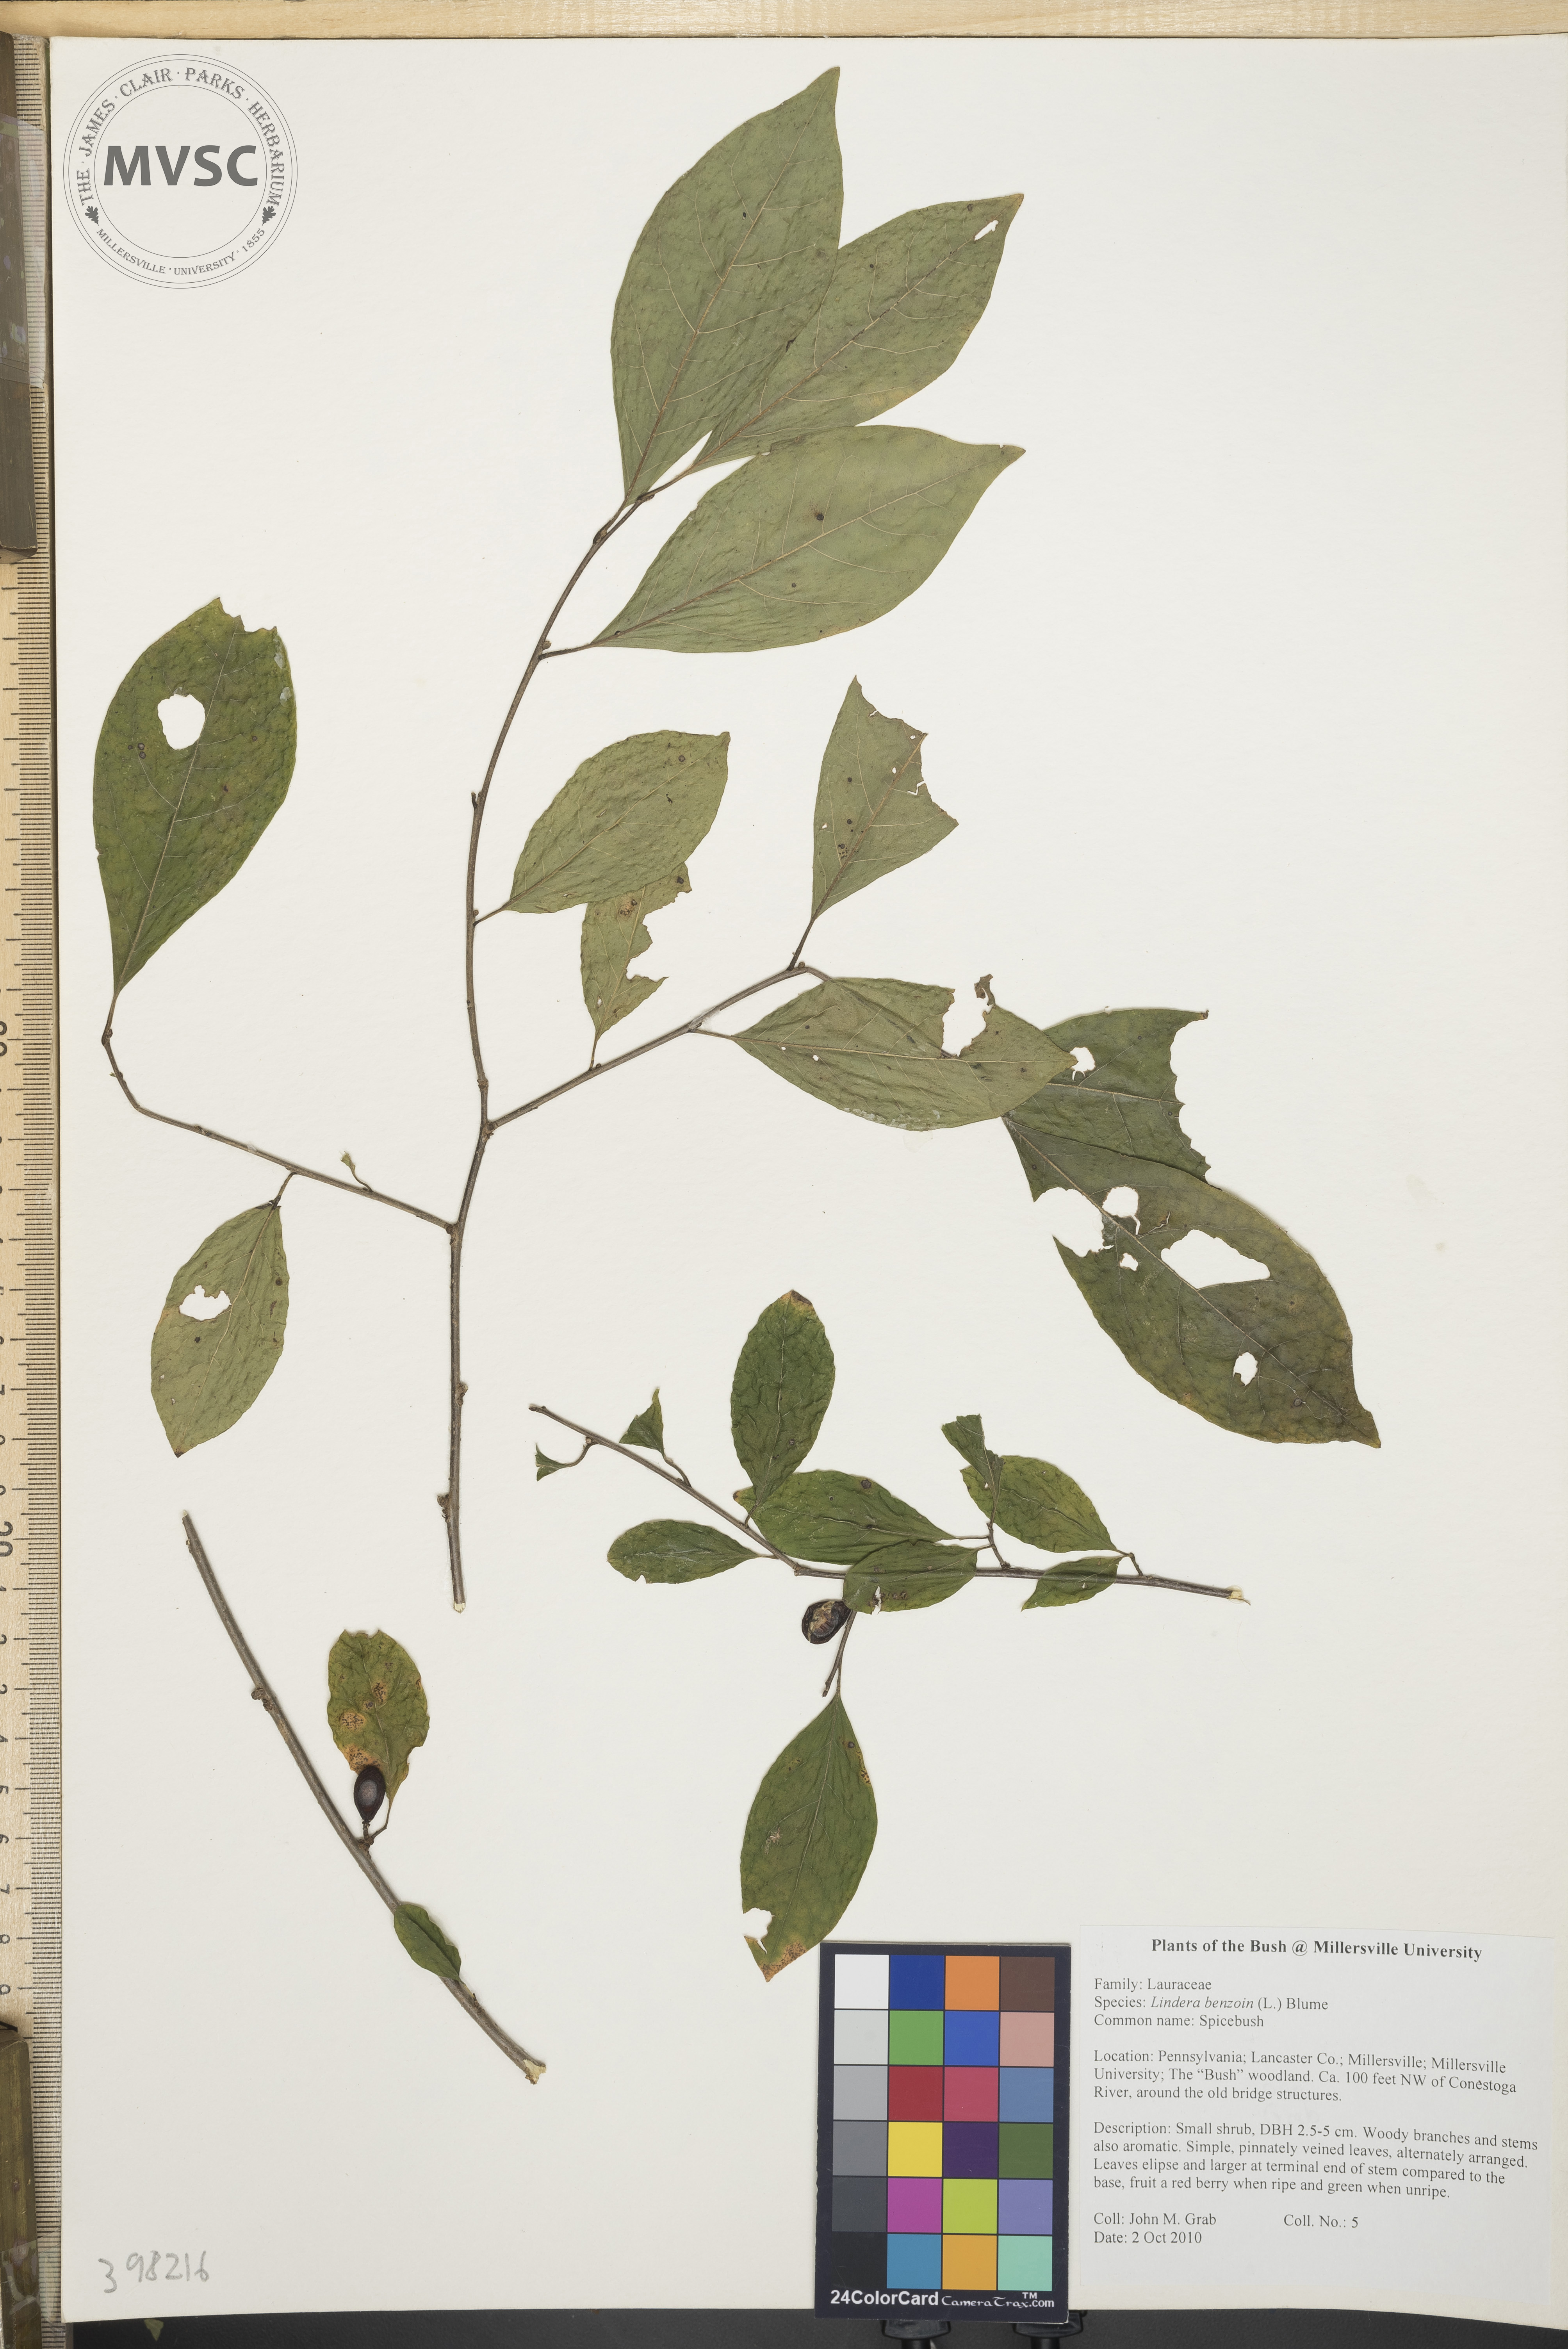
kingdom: Plantae
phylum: Tracheophyta
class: Magnoliopsida
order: Laurales
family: Lauraceae
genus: Lindera
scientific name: Lindera benzoin
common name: Spicebush
